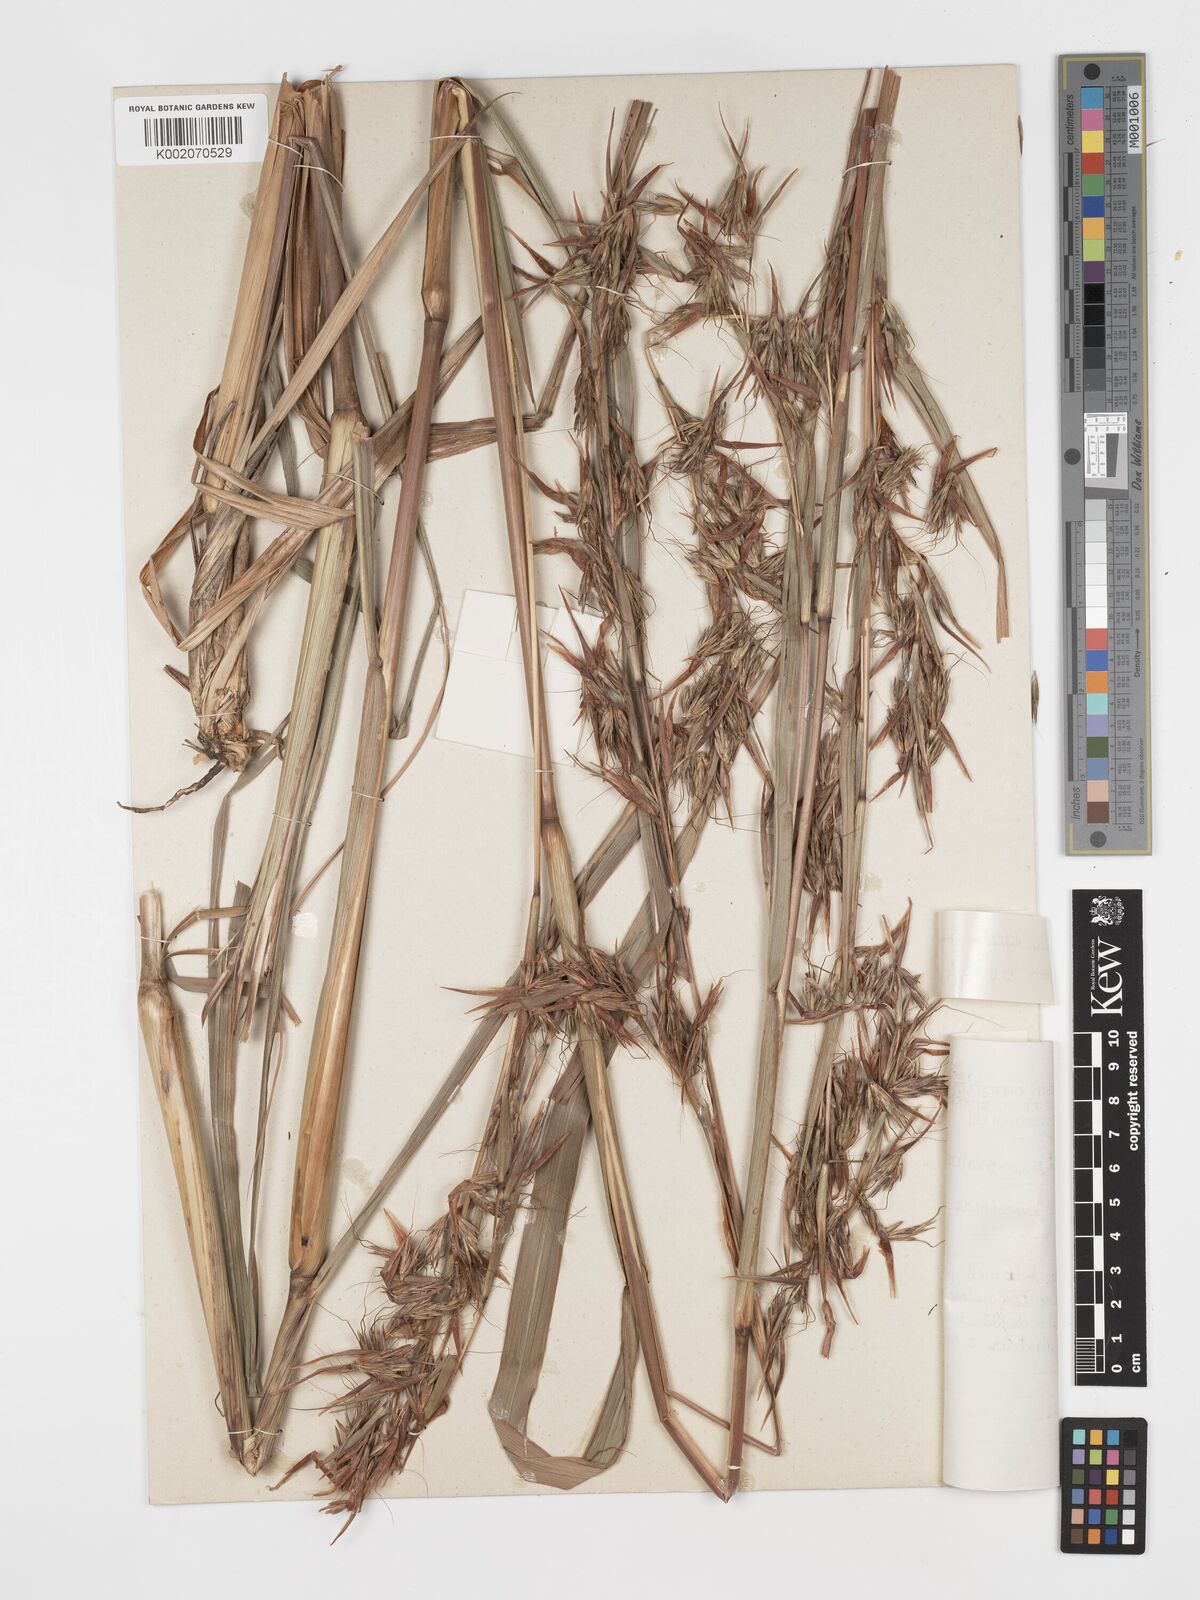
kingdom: Plantae
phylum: Tracheophyta
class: Liliopsida
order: Poales
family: Poaceae
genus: Hyparrhenia
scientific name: Hyparrhenia diplandra
